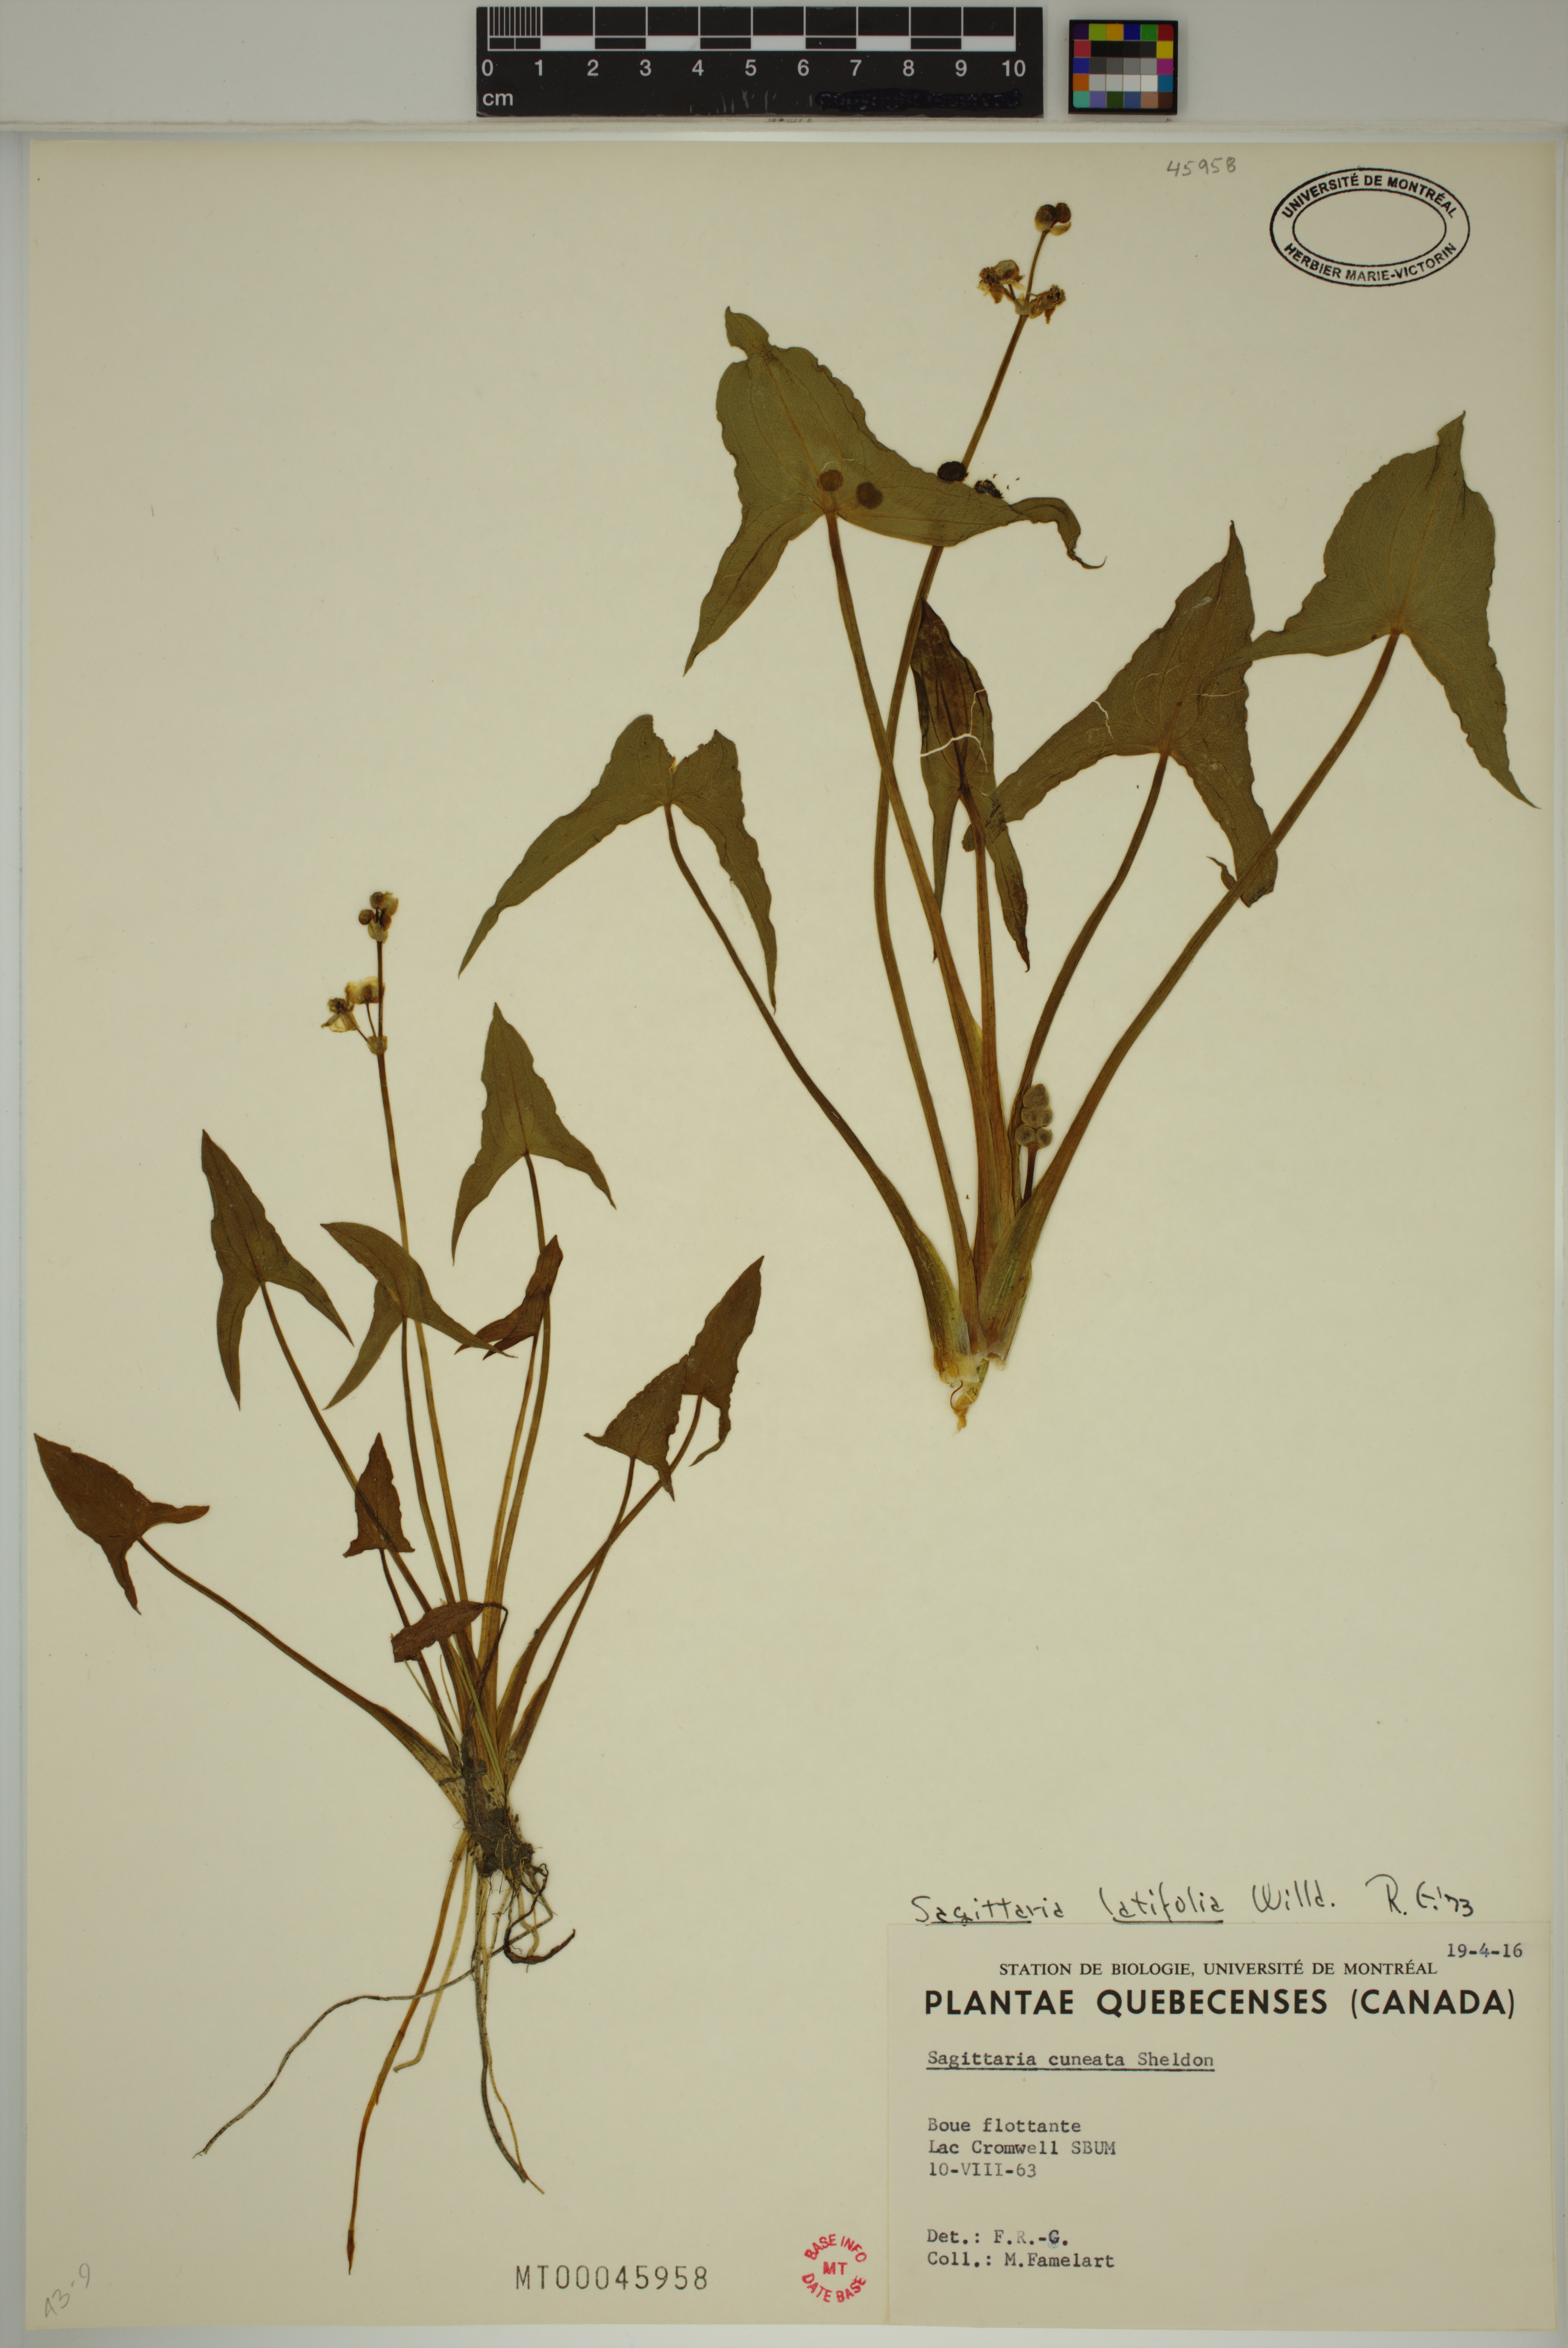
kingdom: Plantae
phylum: Tracheophyta
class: Liliopsida
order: Alismatales
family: Alismataceae
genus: Sagittaria
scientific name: Sagittaria latifolia
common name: Duck-potato
